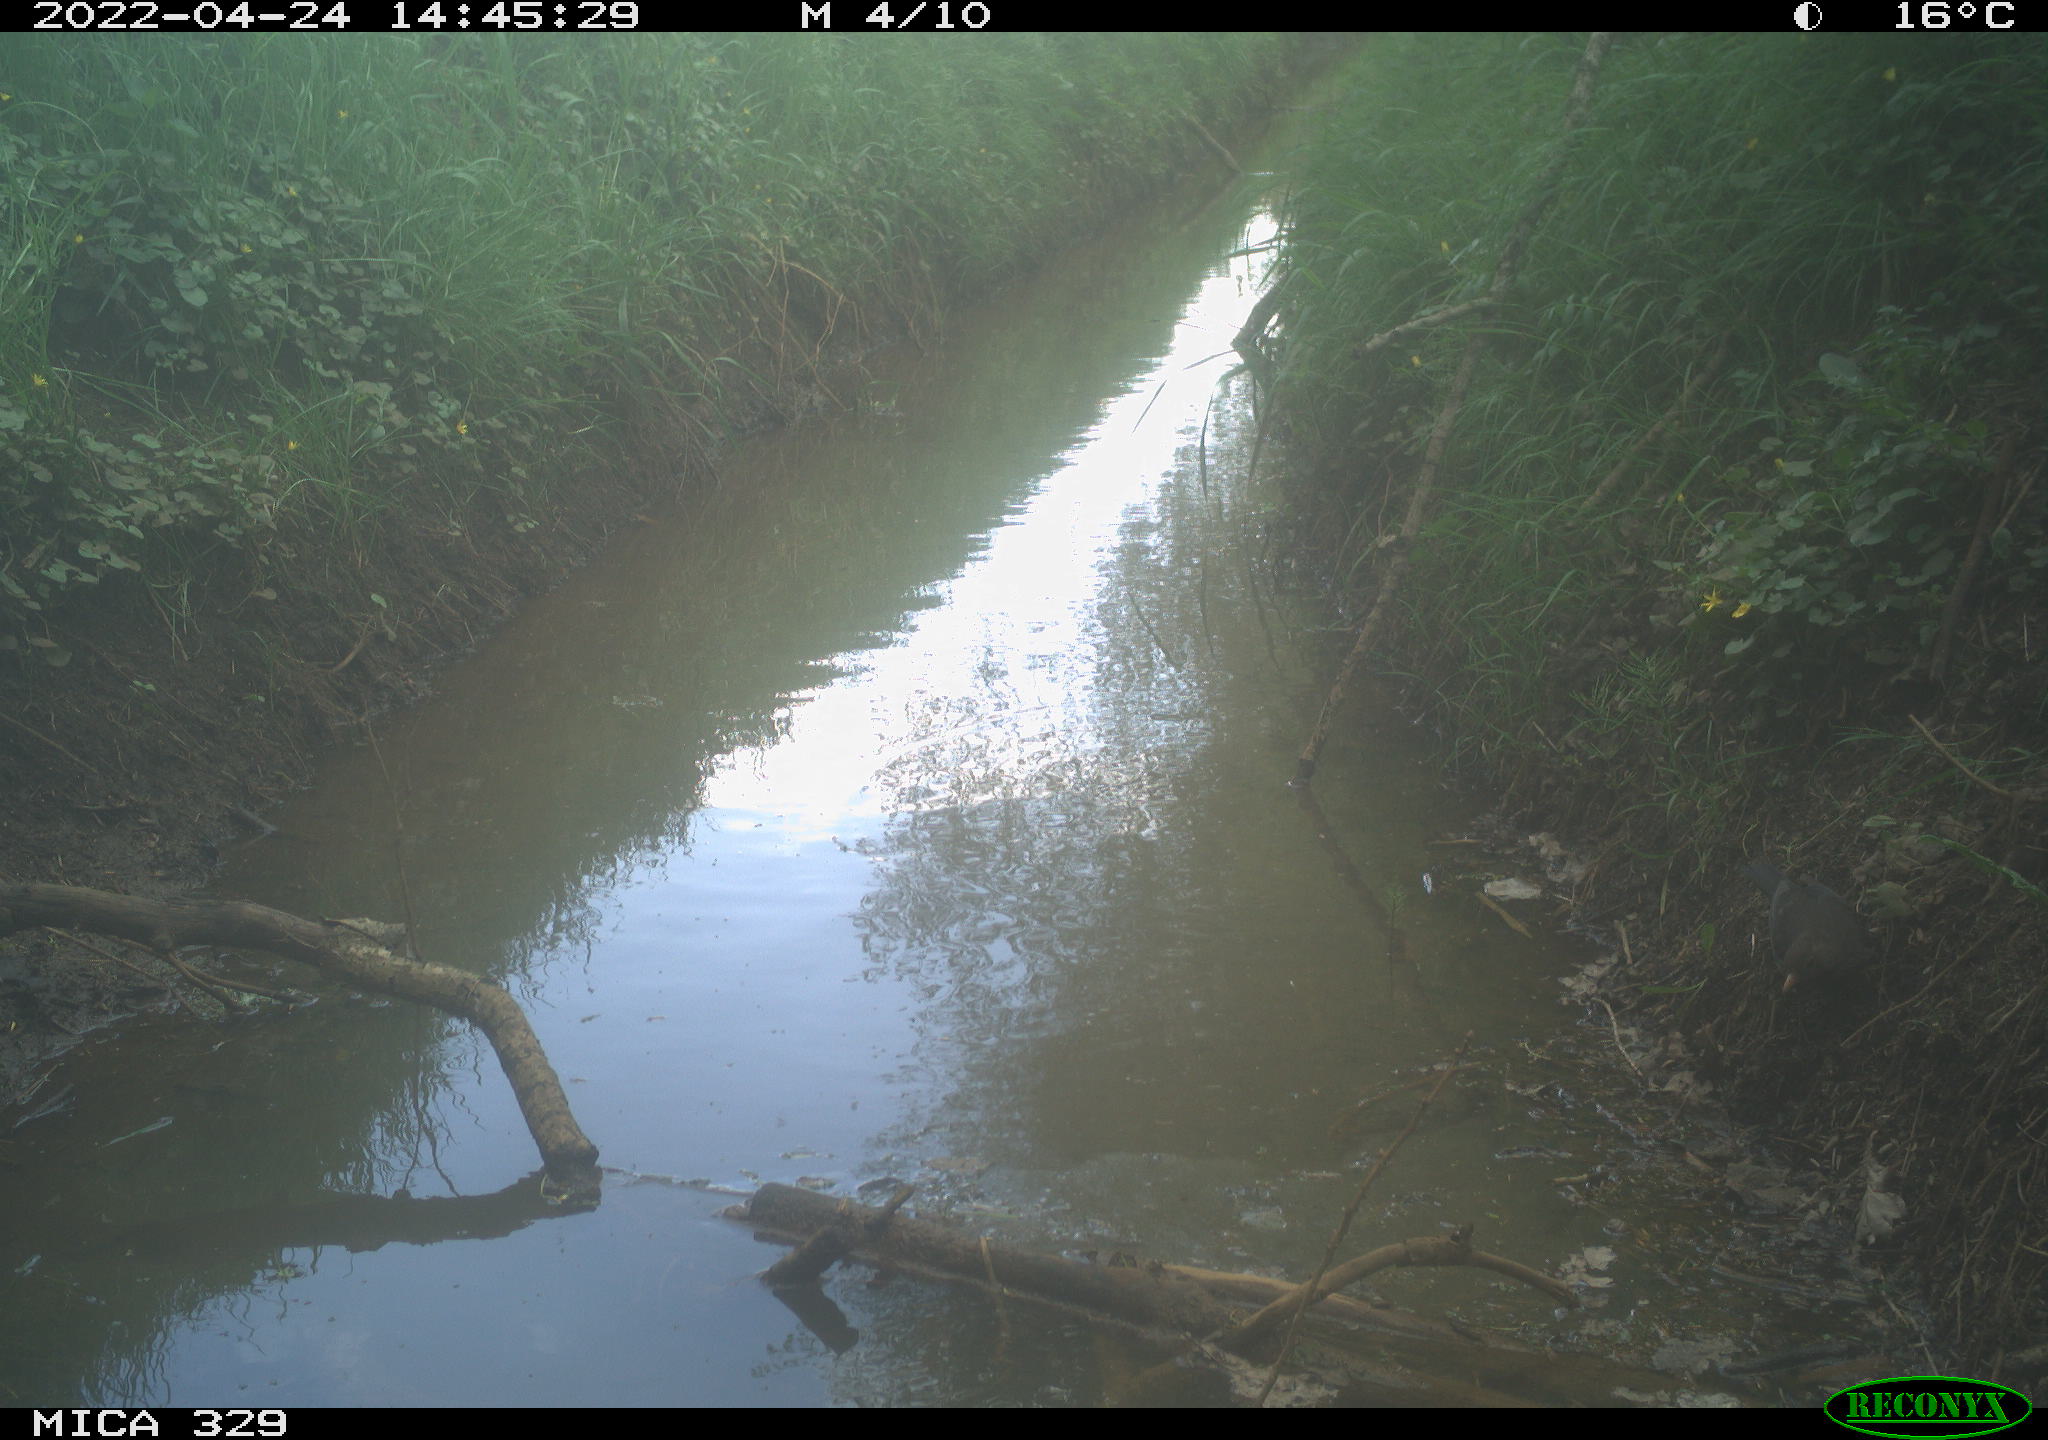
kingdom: Animalia
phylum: Chordata
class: Aves
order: Passeriformes
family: Turdidae
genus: Turdus
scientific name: Turdus merula
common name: Common blackbird
